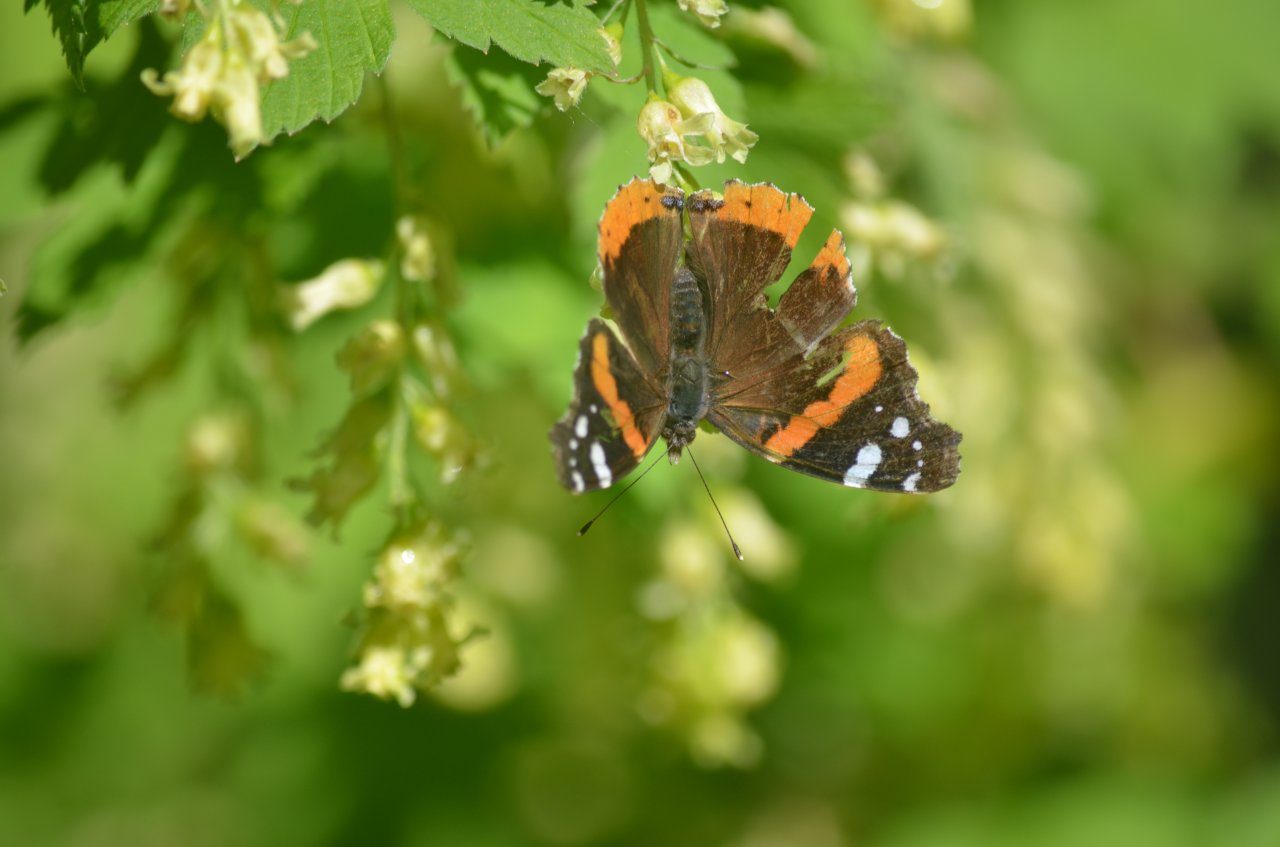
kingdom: Animalia
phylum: Arthropoda
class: Insecta
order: Lepidoptera
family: Nymphalidae
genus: Vanessa
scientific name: Vanessa atalanta
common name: Red Admiral
